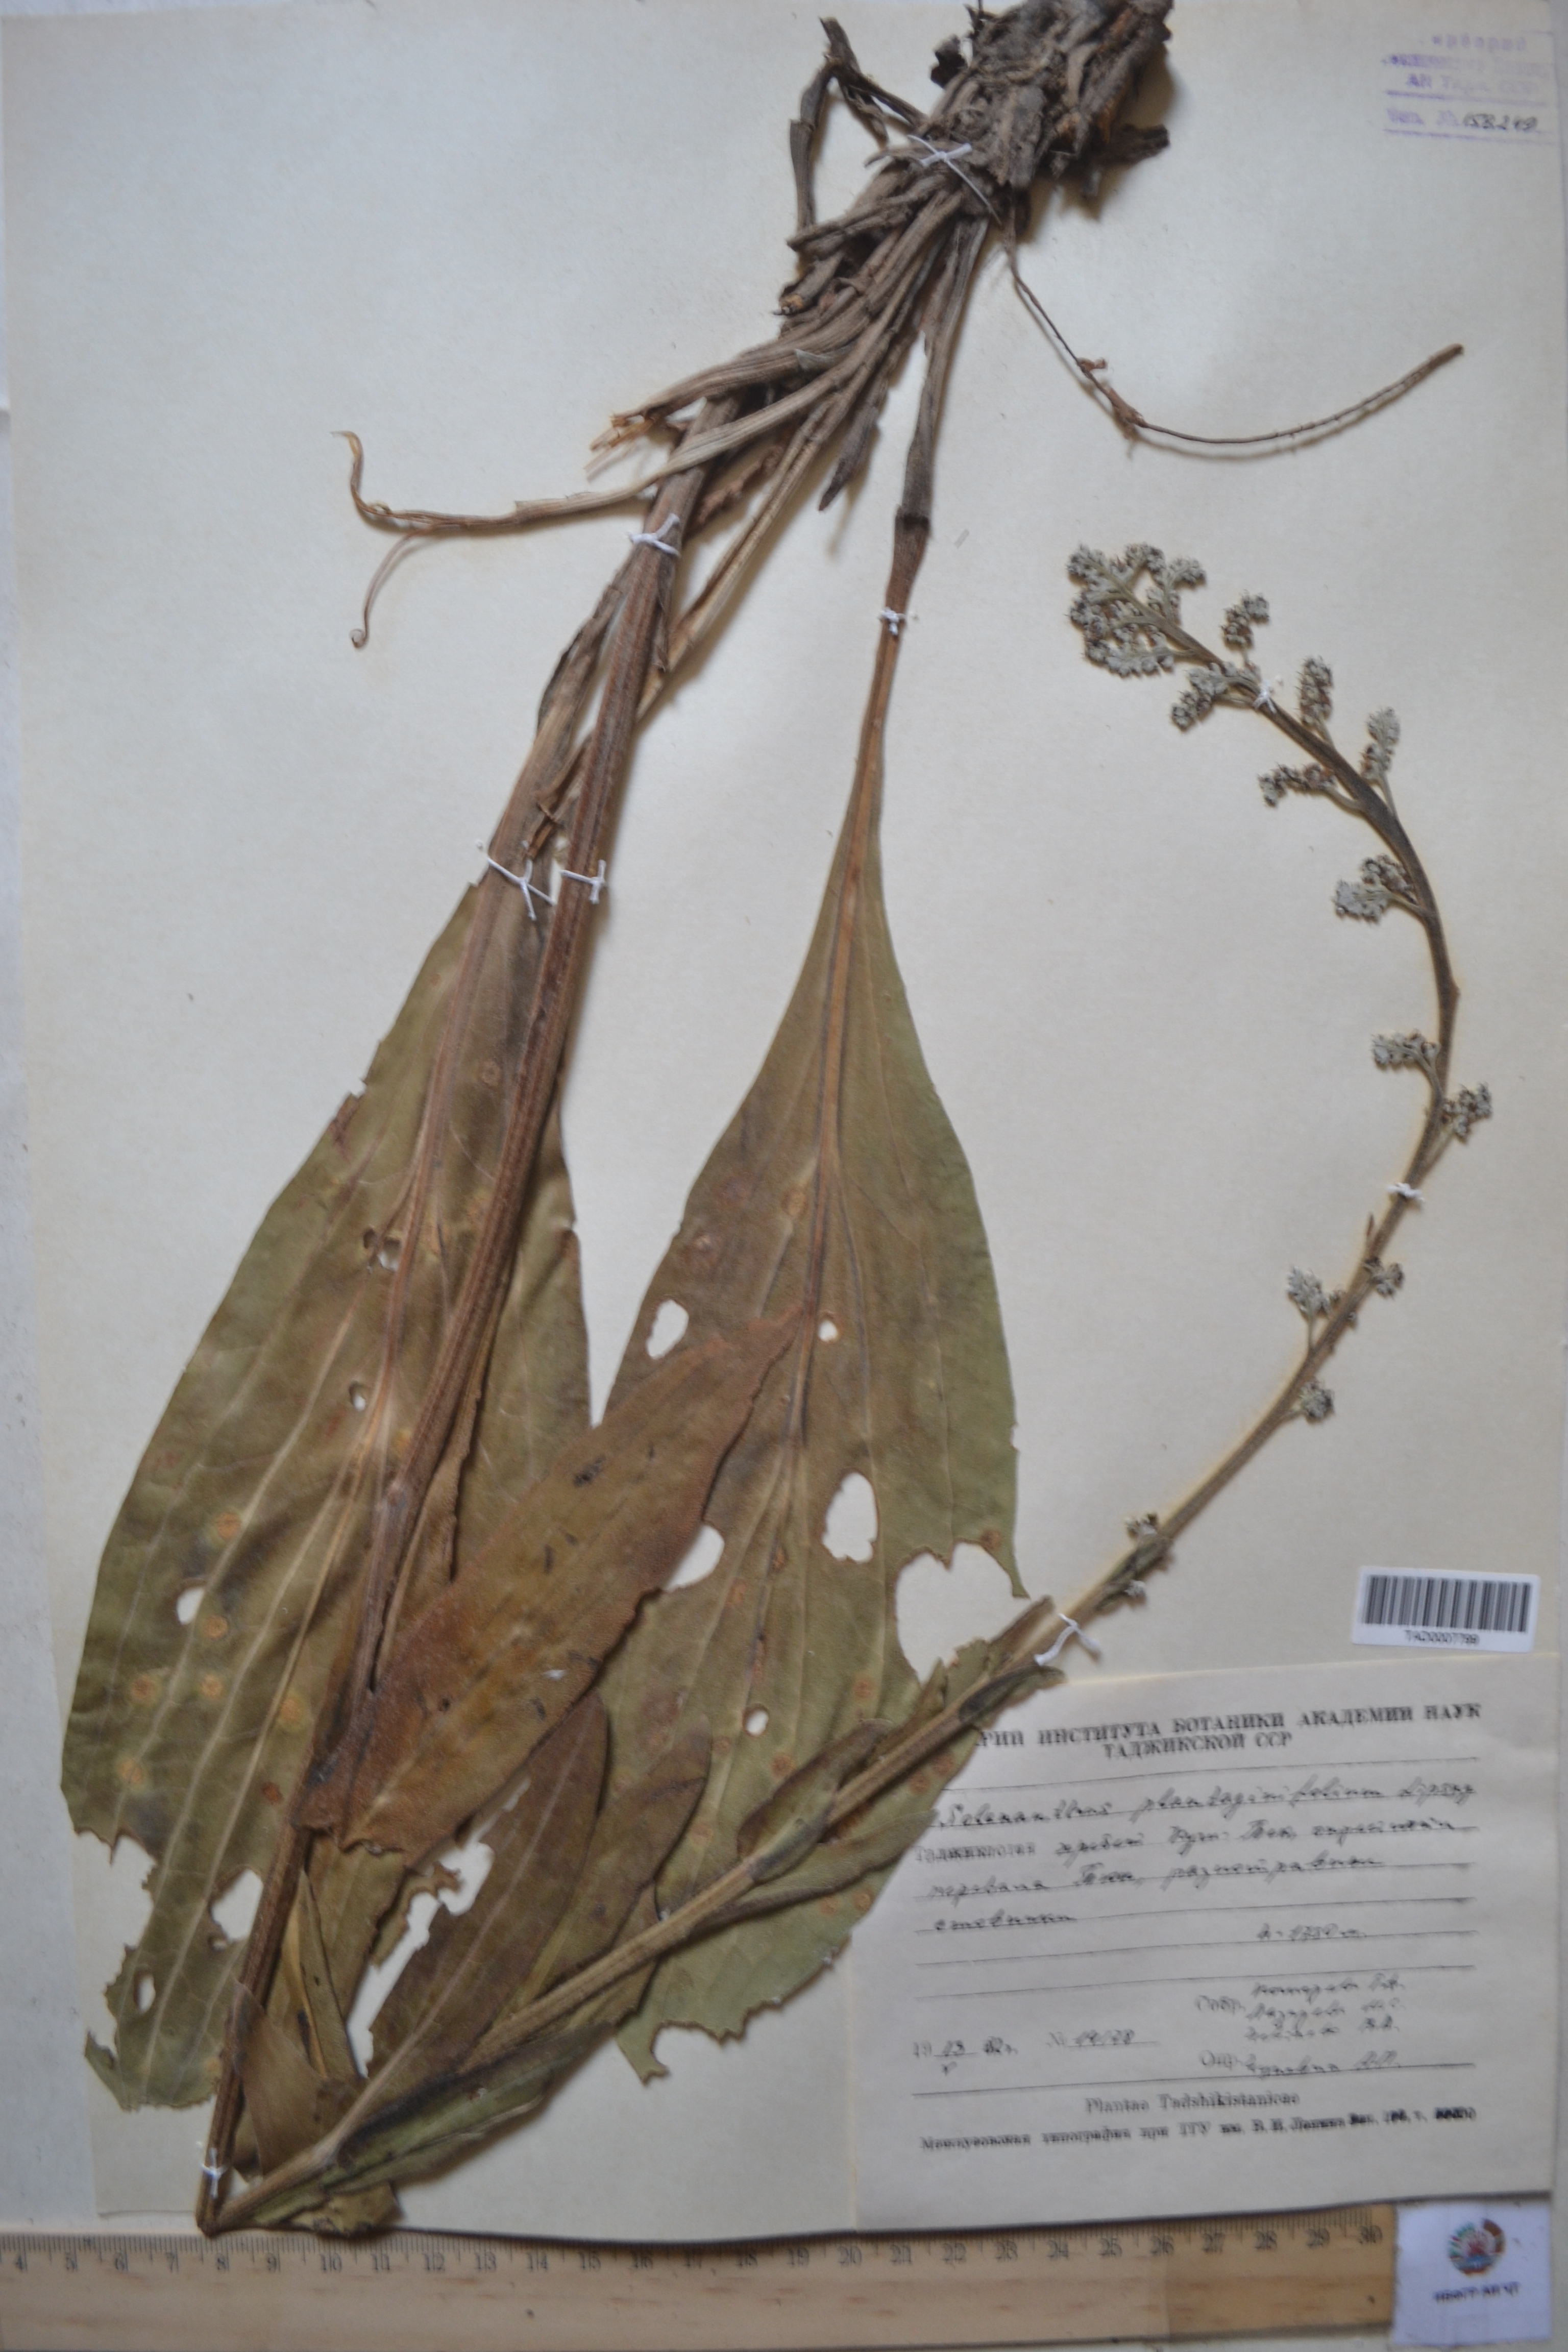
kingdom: Plantae
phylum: Tracheophyta
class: Magnoliopsida
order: Boraginales
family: Boraginaceae
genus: Solenanthus
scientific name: Solenanthus plantaginifolius
